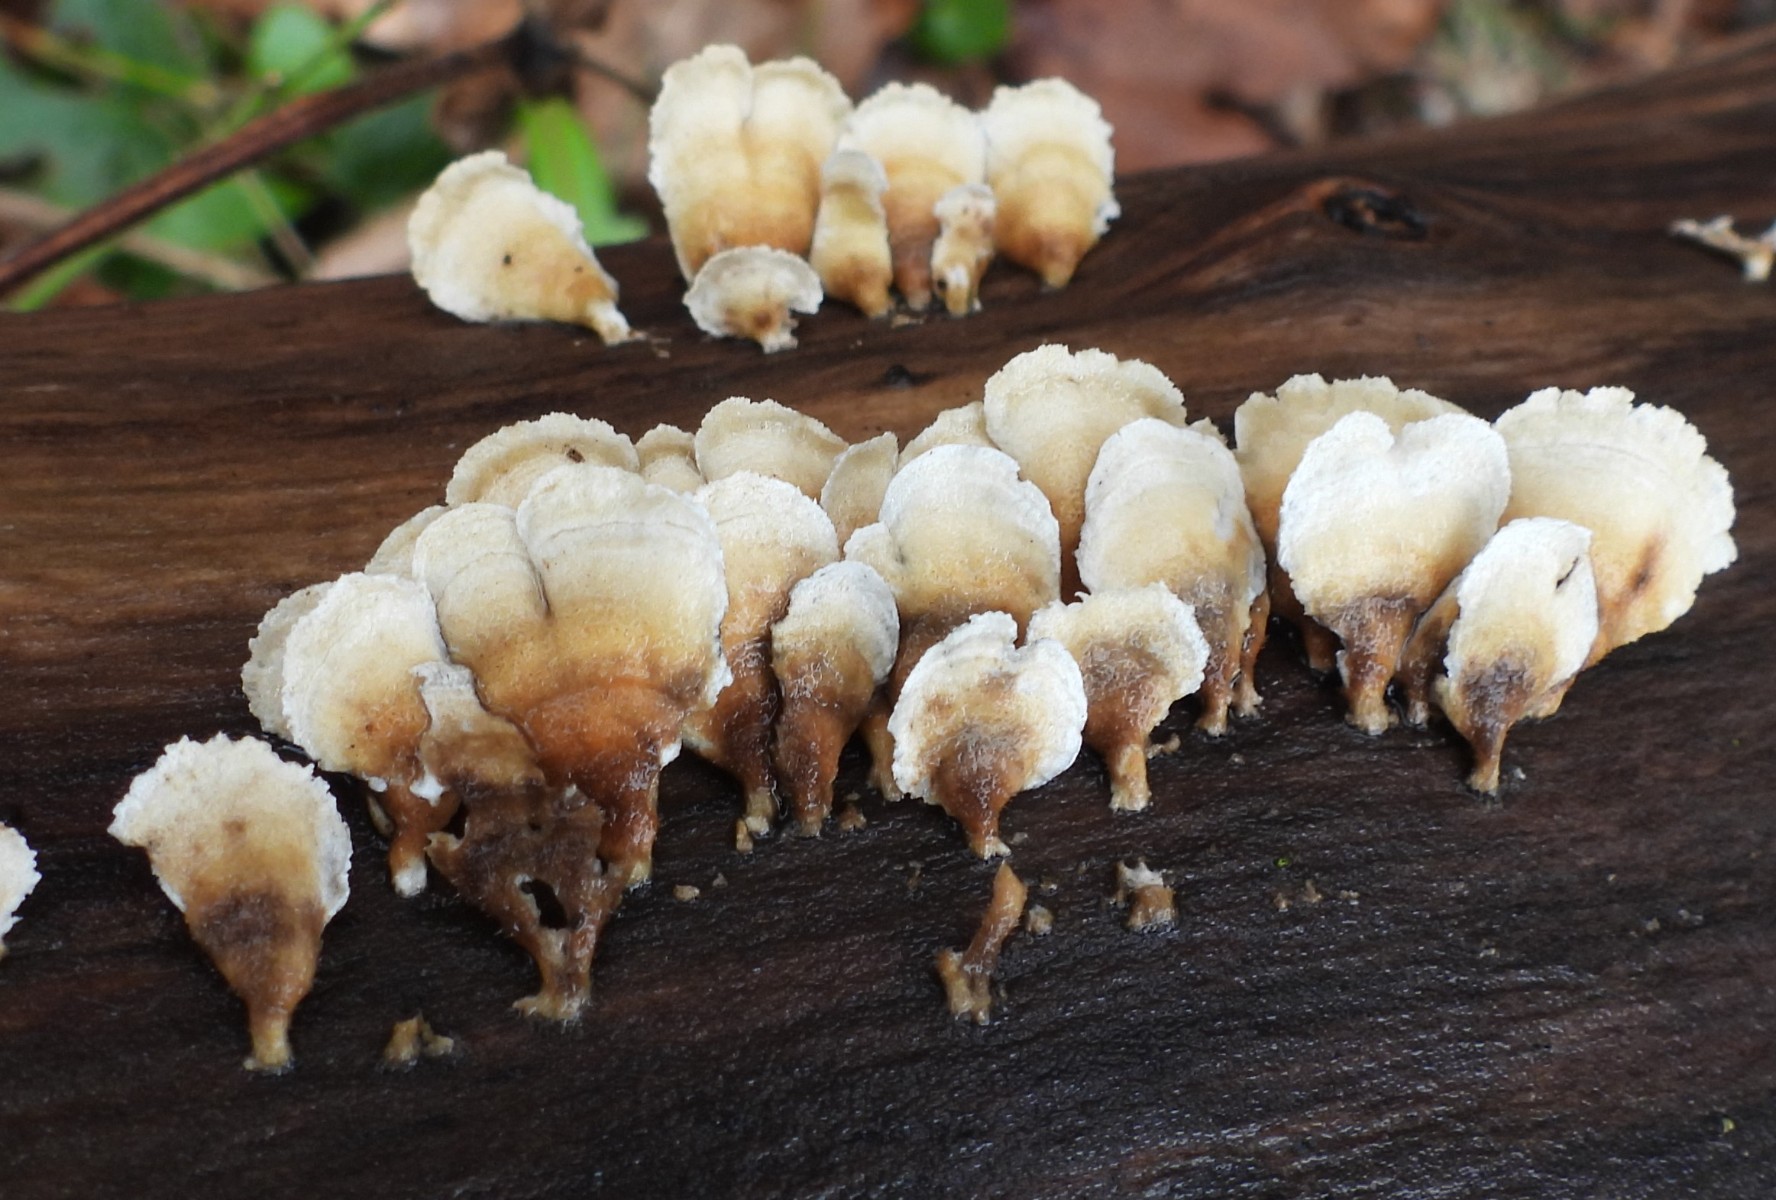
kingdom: Fungi
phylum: Basidiomycota
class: Agaricomycetes
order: Amylocorticiales
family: Amylocorticiaceae
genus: Plicaturopsis
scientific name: Plicaturopsis crispa
